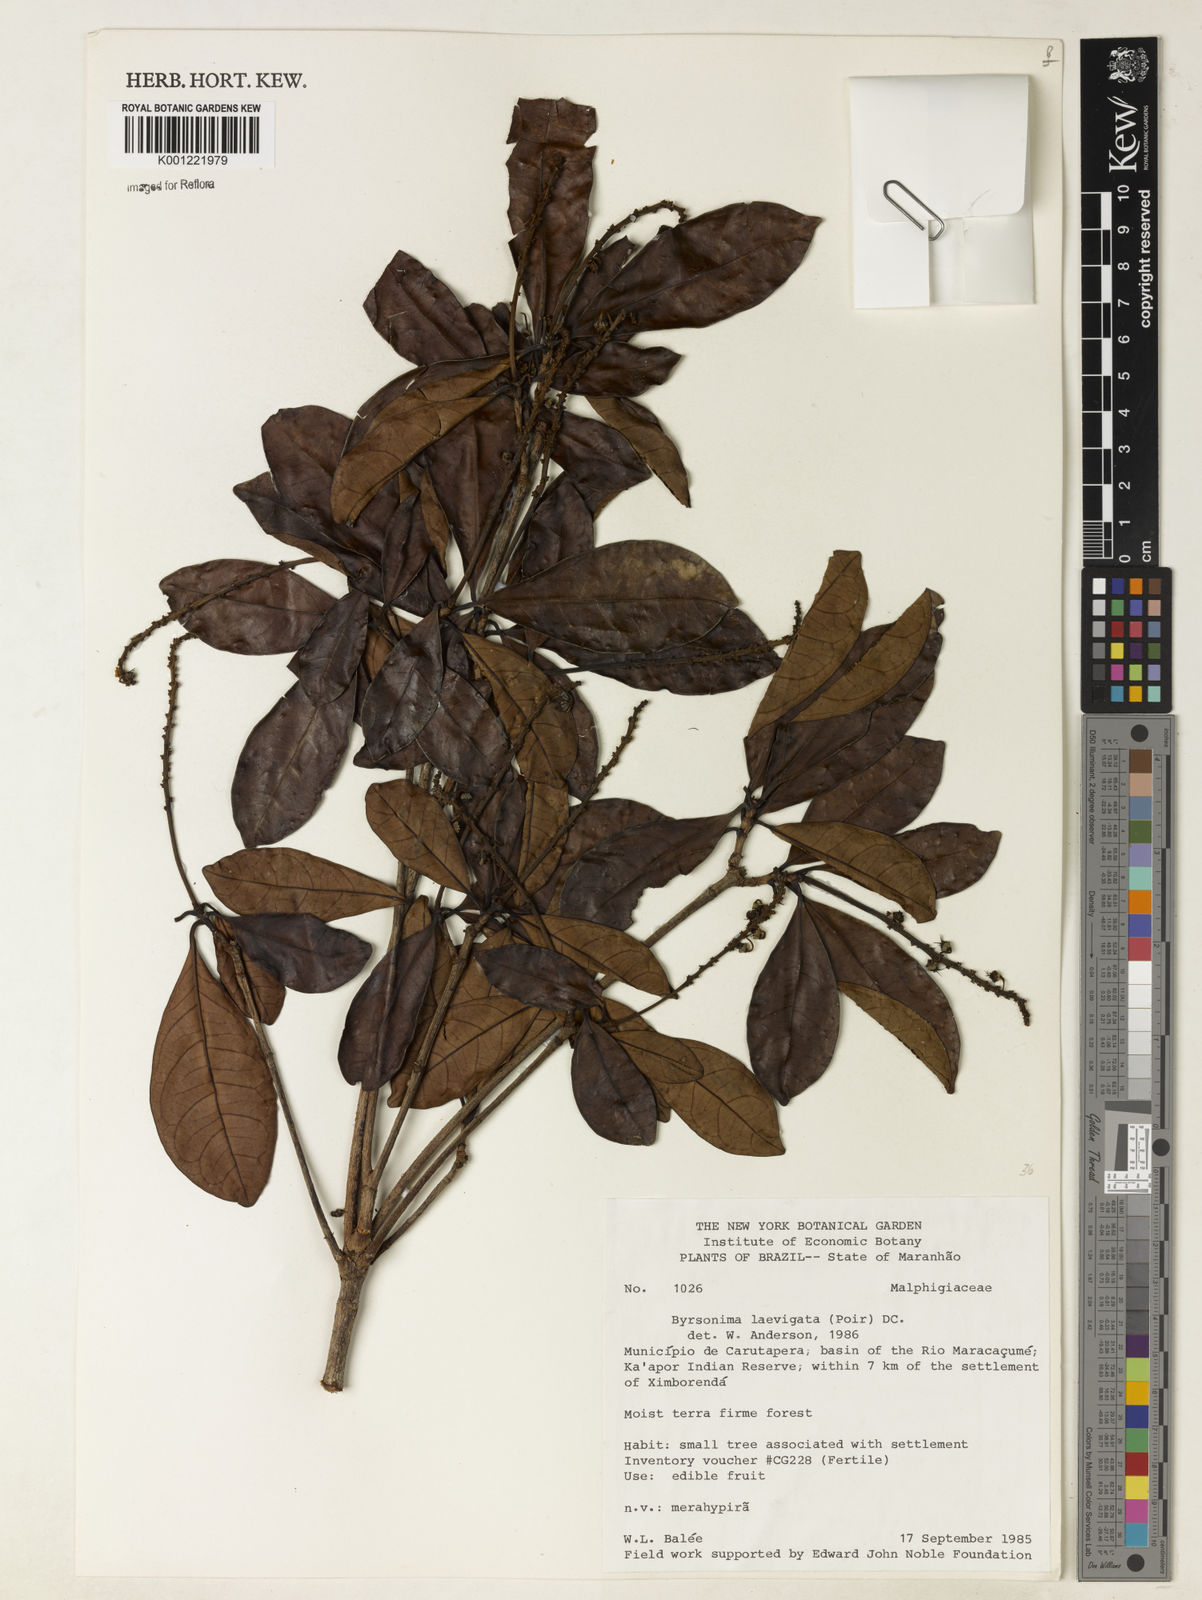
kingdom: Plantae
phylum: Tracheophyta
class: Magnoliopsida
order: Malpighiales
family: Malpighiaceae
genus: Byrsonima
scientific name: Byrsonima laevigata
